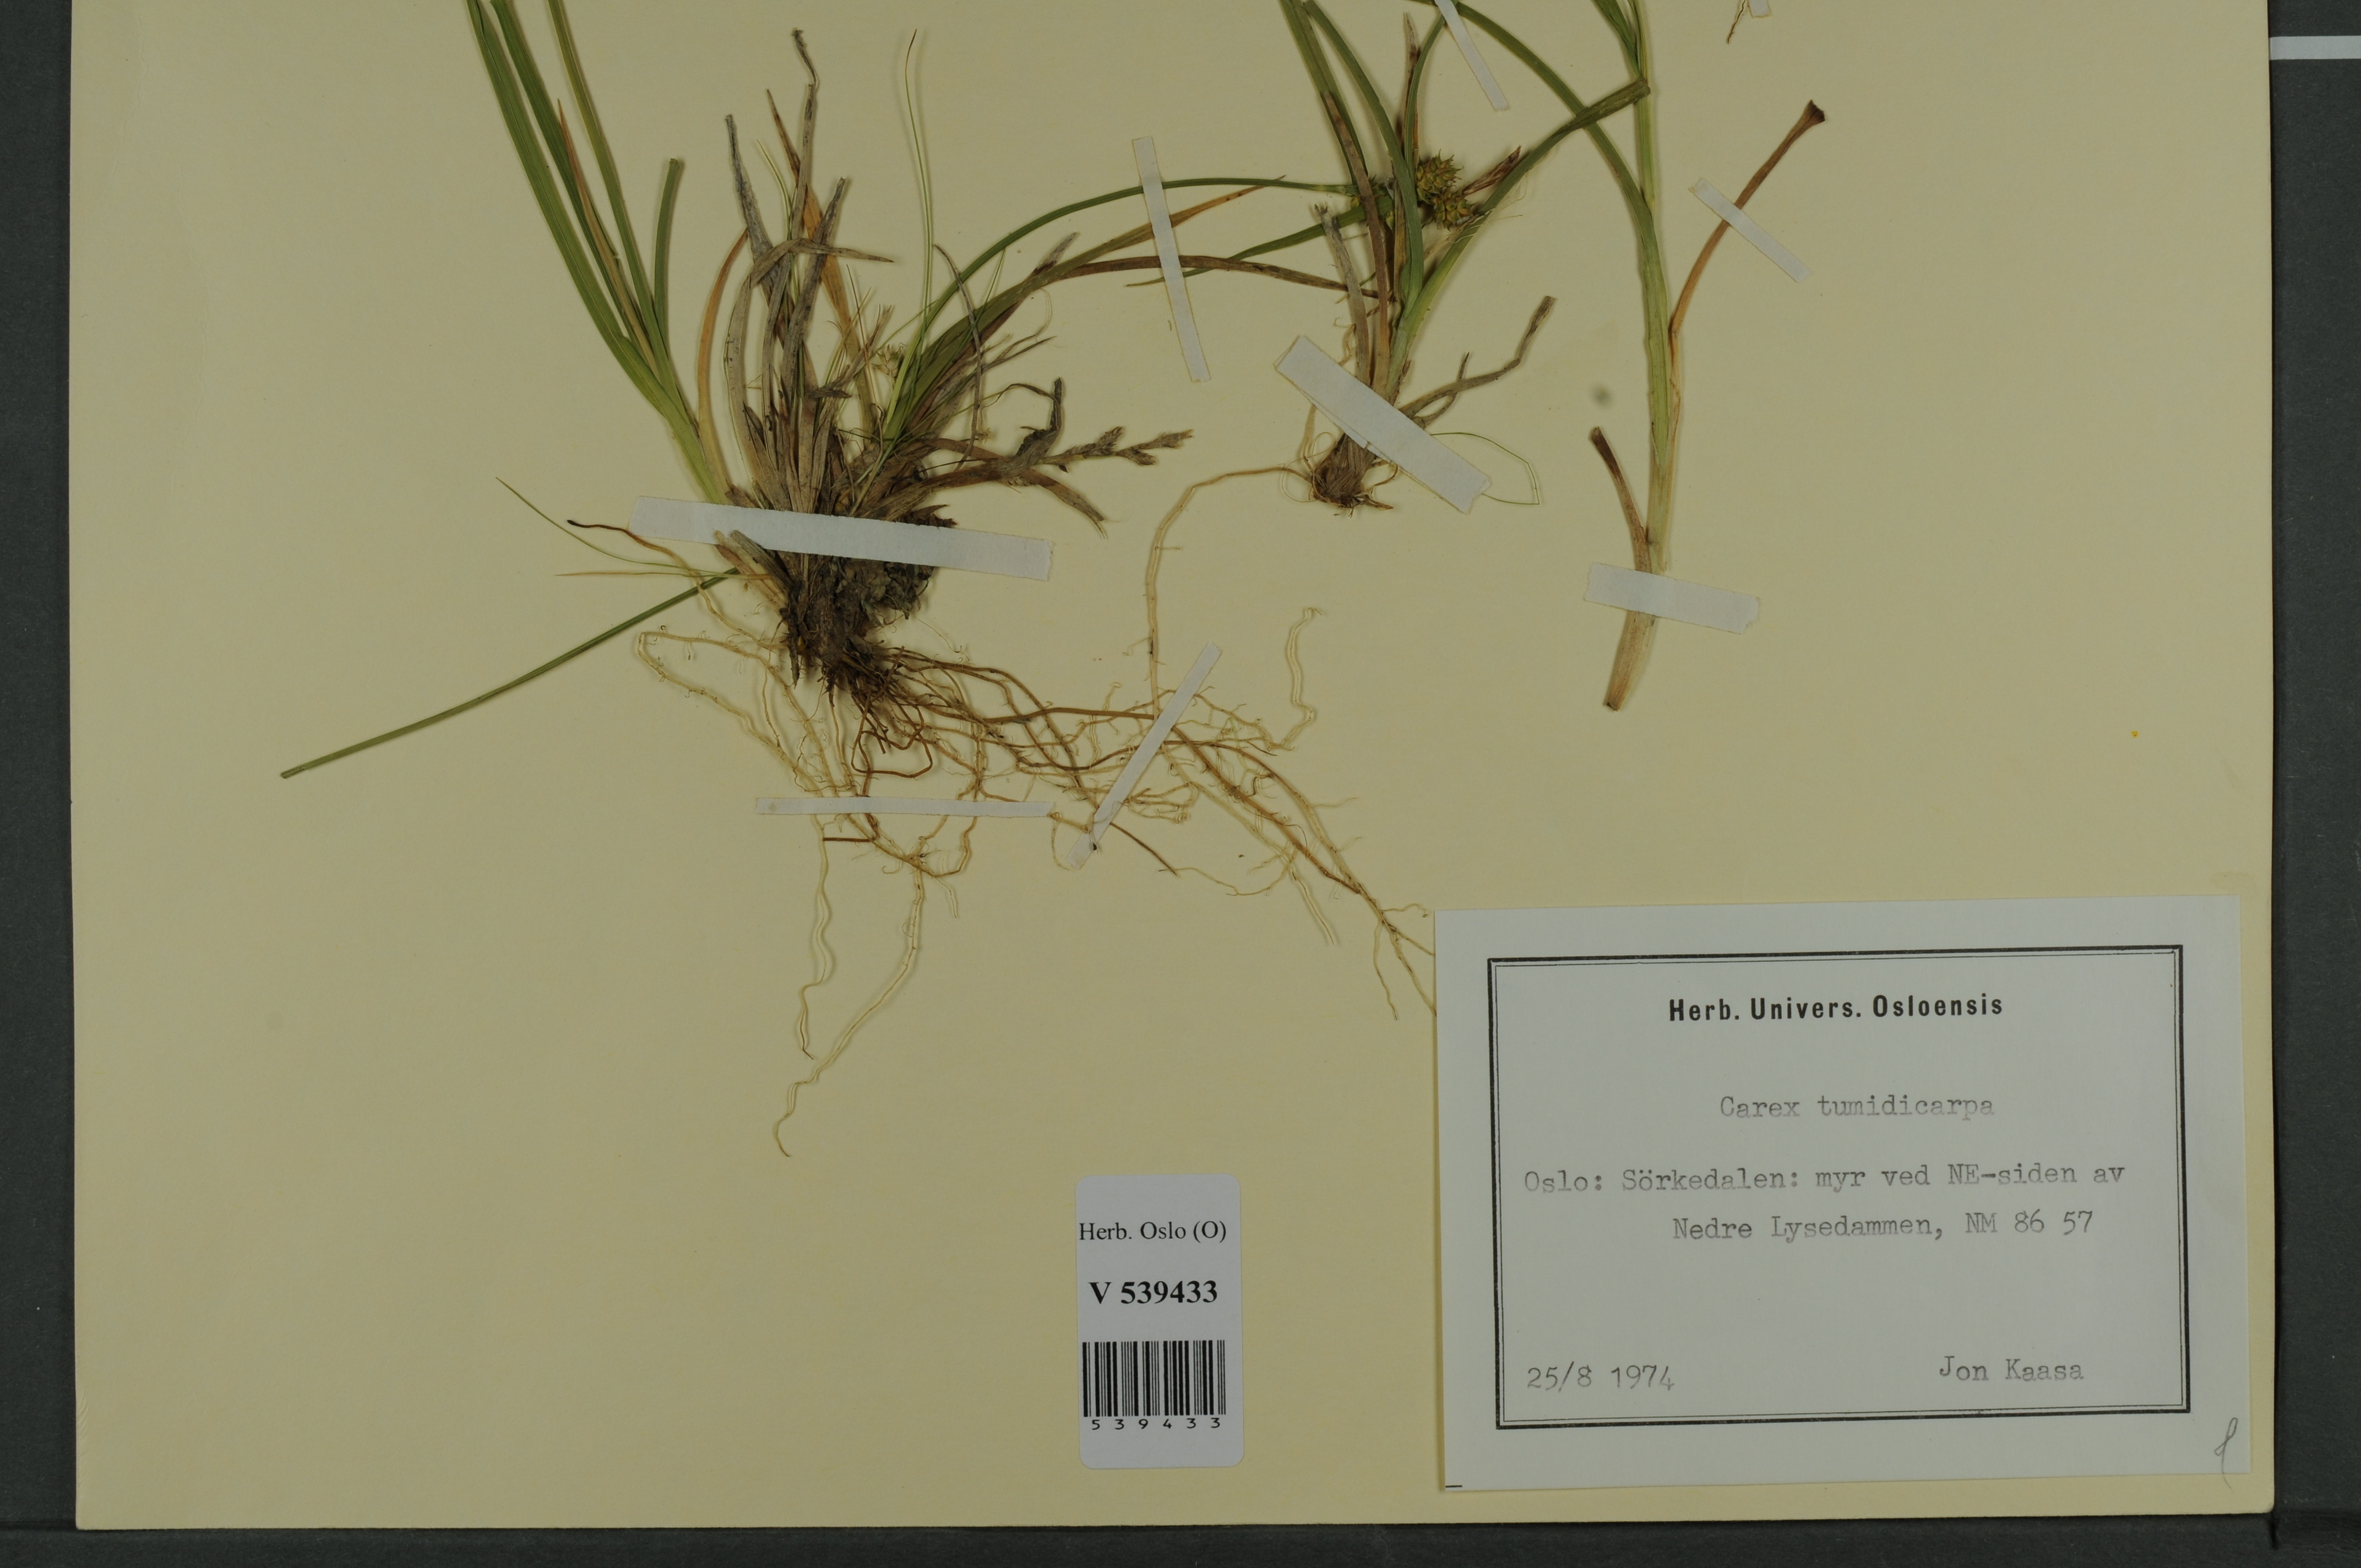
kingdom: Plantae
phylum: Tracheophyta
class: Liliopsida
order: Poales
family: Cyperaceae
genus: Carex
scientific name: Carex demissa
